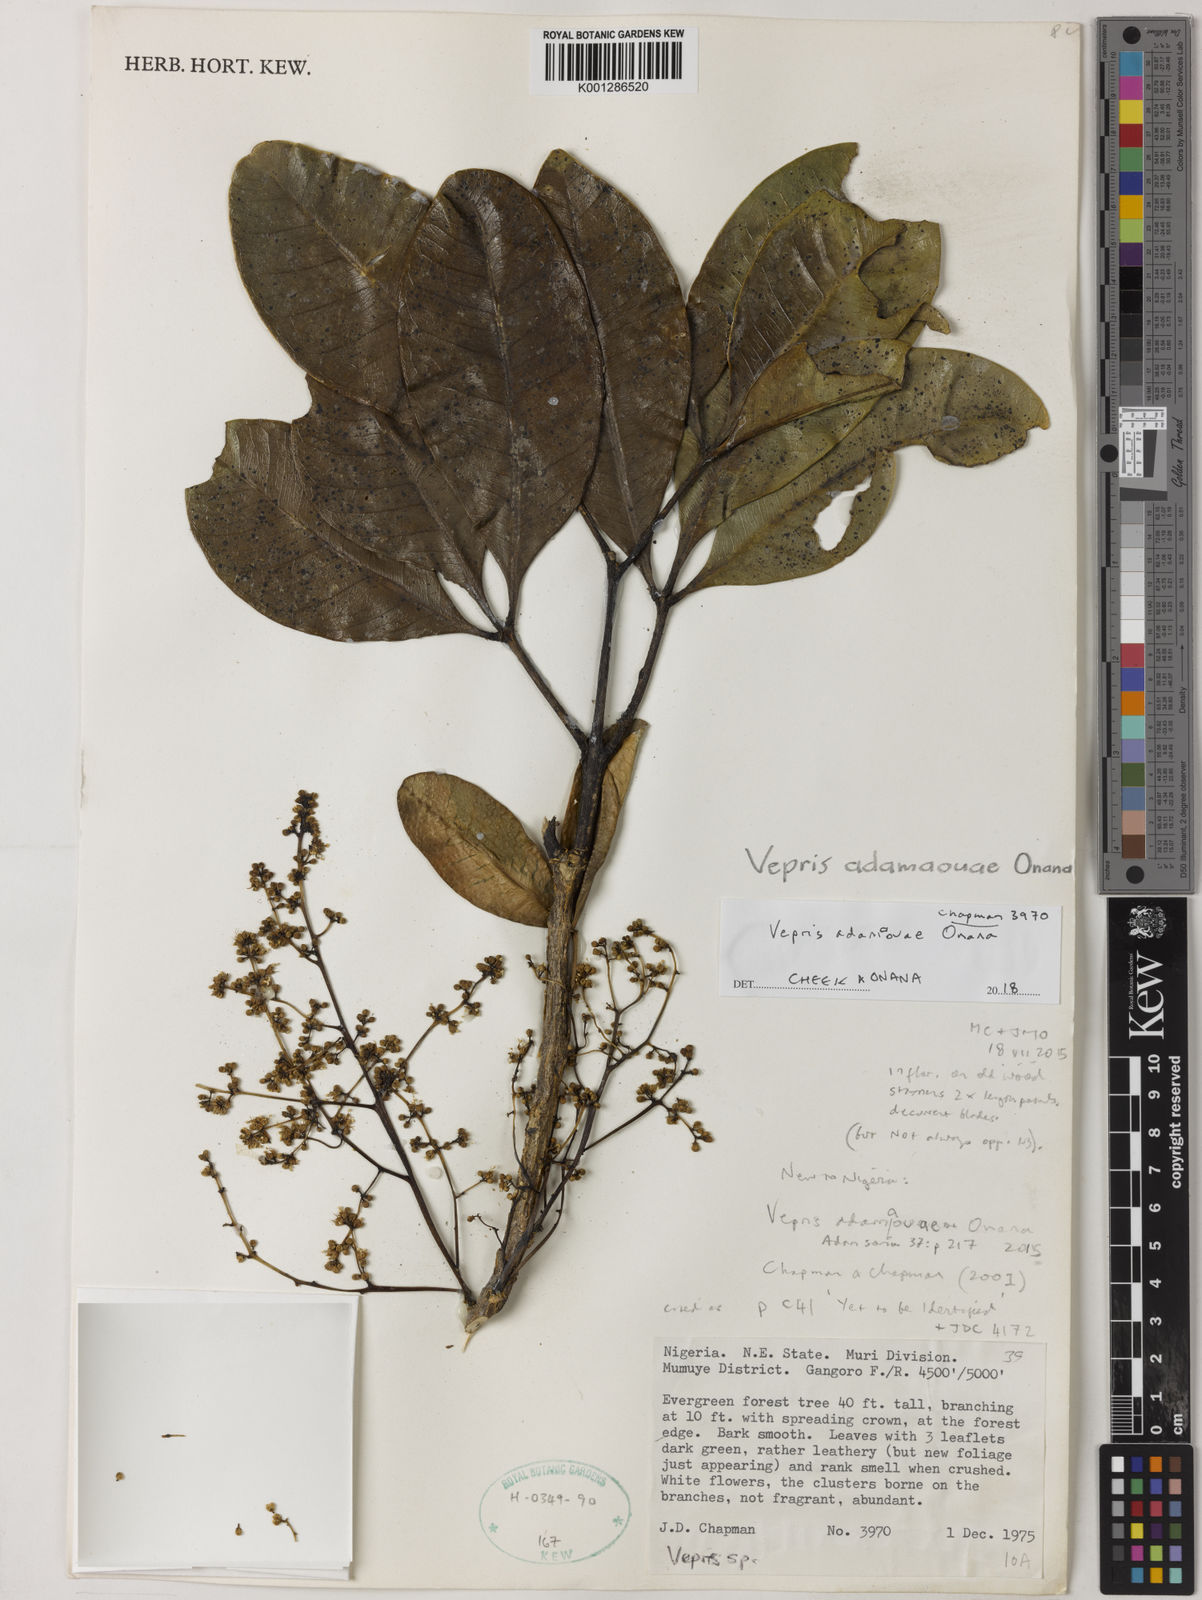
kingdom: Plantae
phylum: Tracheophyta
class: Magnoliopsida
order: Sapindales
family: Rutaceae
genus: Vepris
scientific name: Vepris adamaouae
